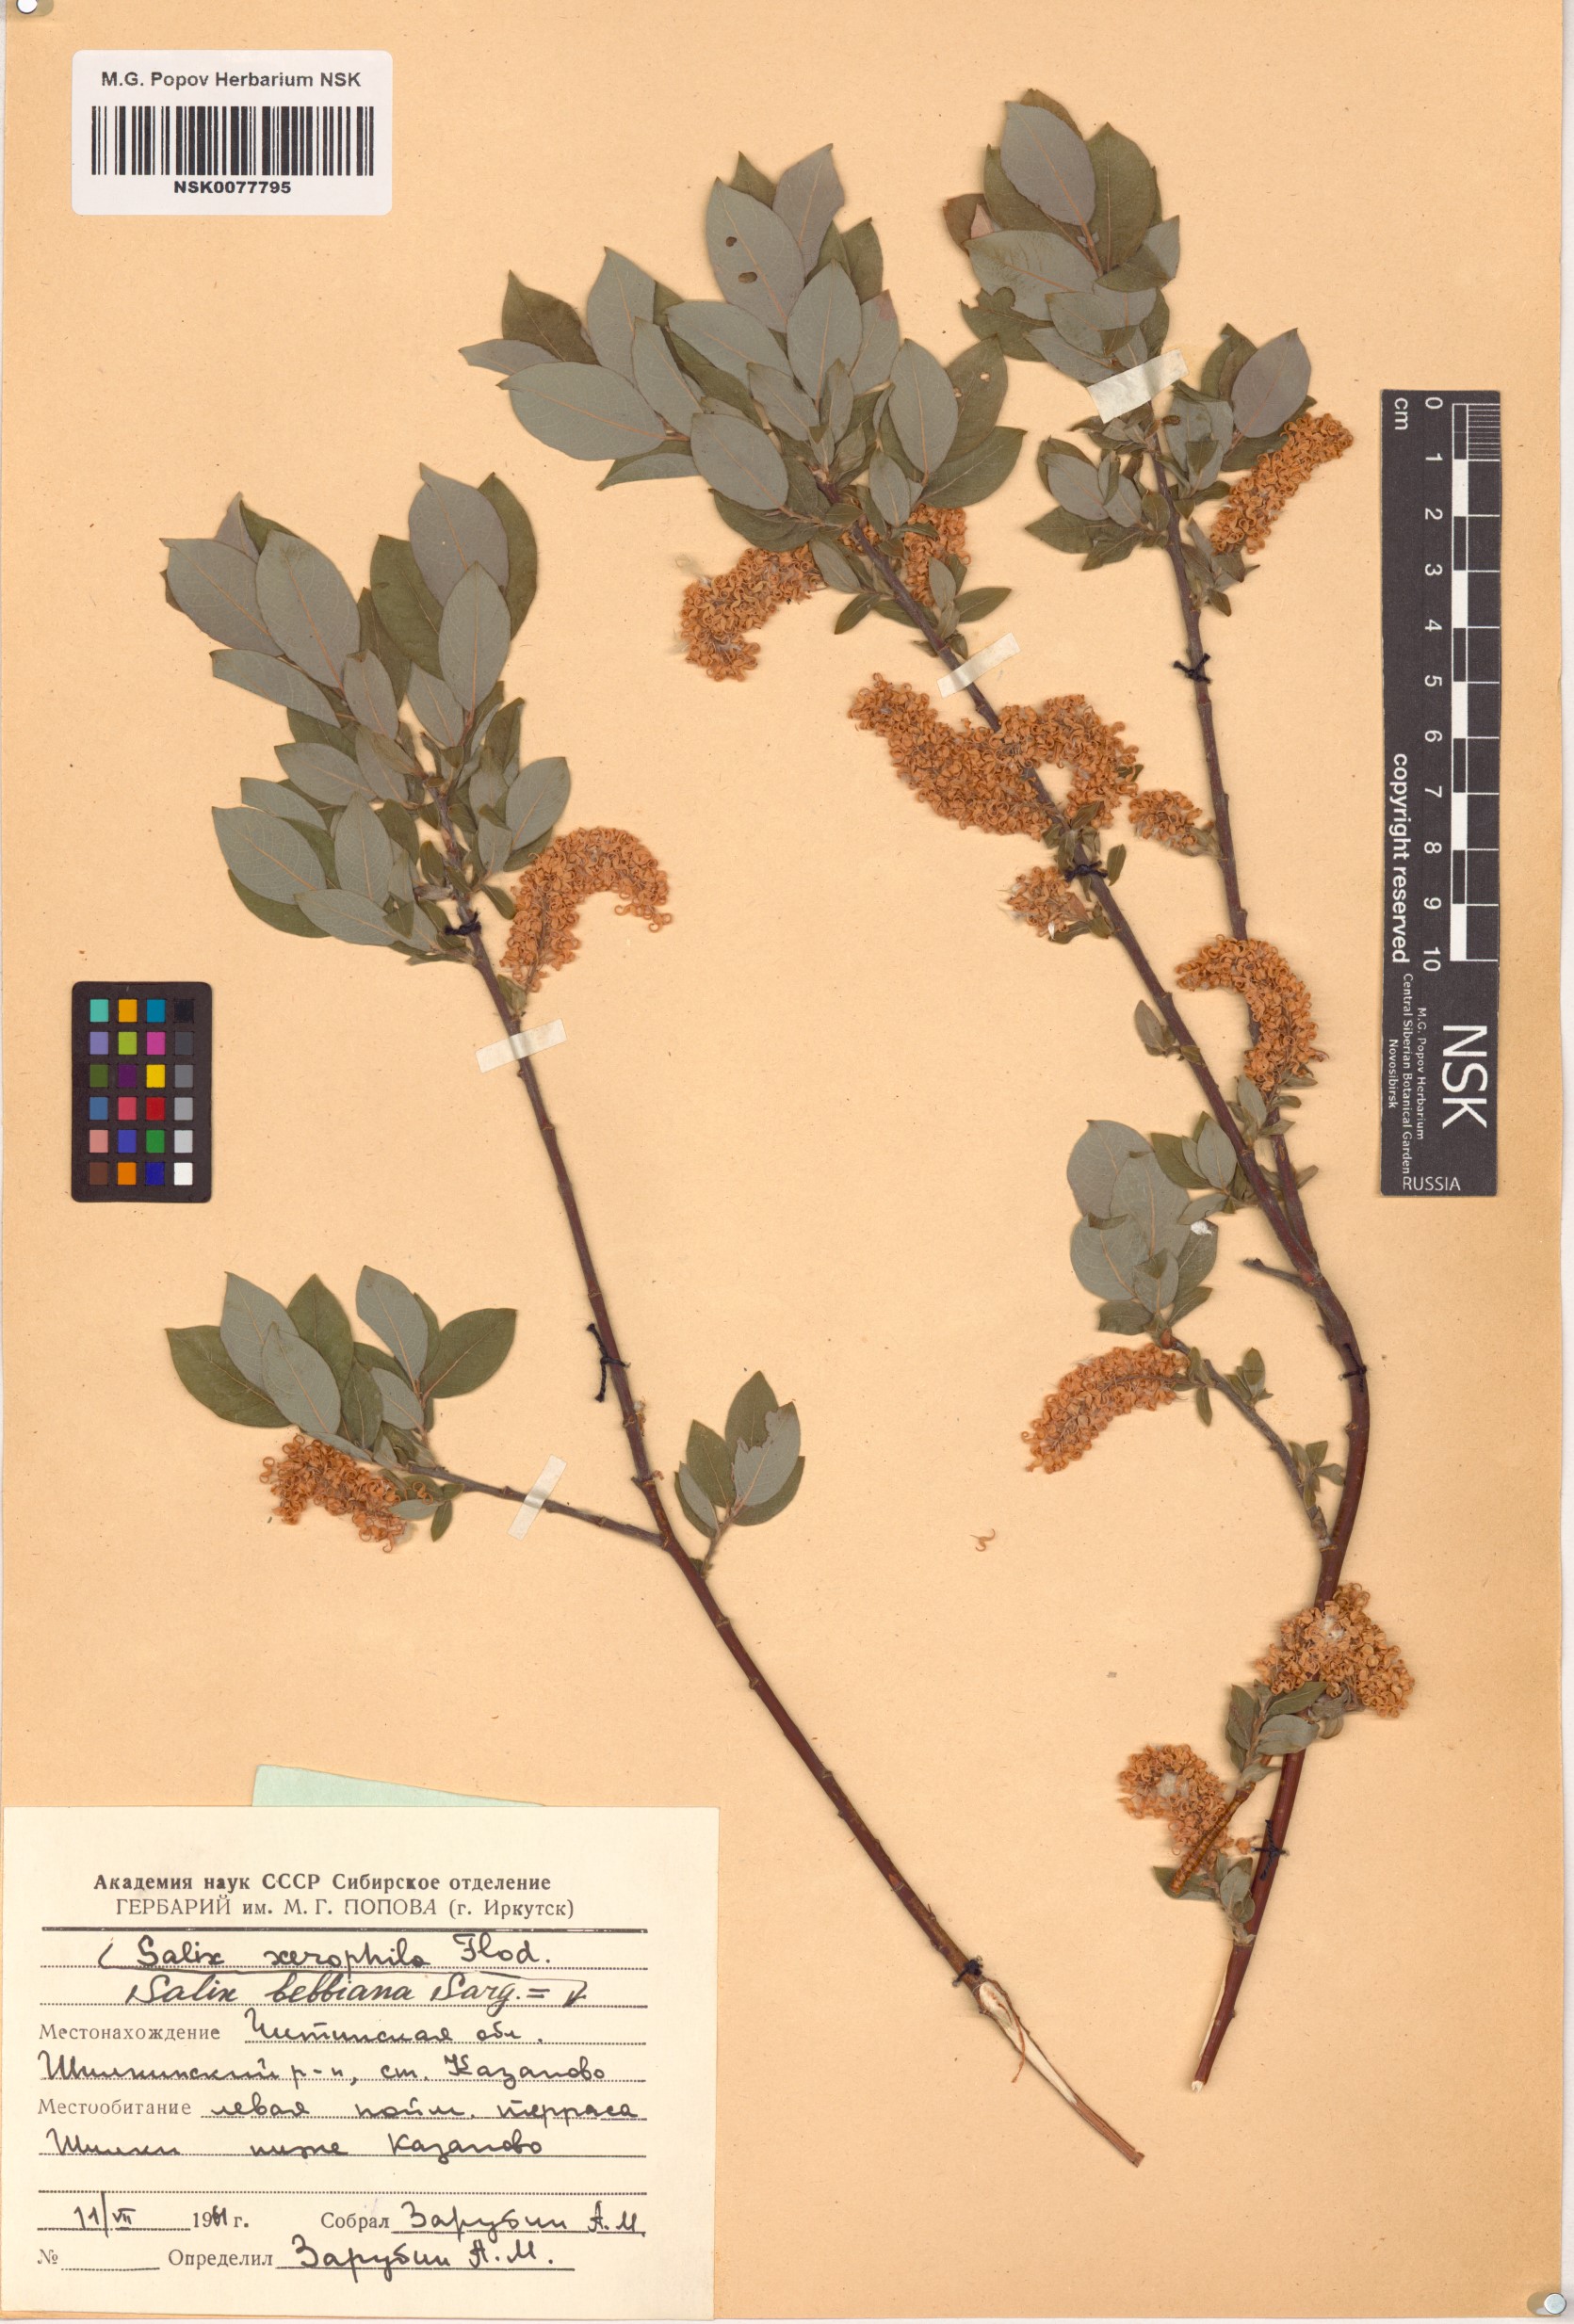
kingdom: Plantae
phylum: Tracheophyta
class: Magnoliopsida
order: Malpighiales
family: Salicaceae
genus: Salix
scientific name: Salix bebbiana
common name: Bebb's willow
